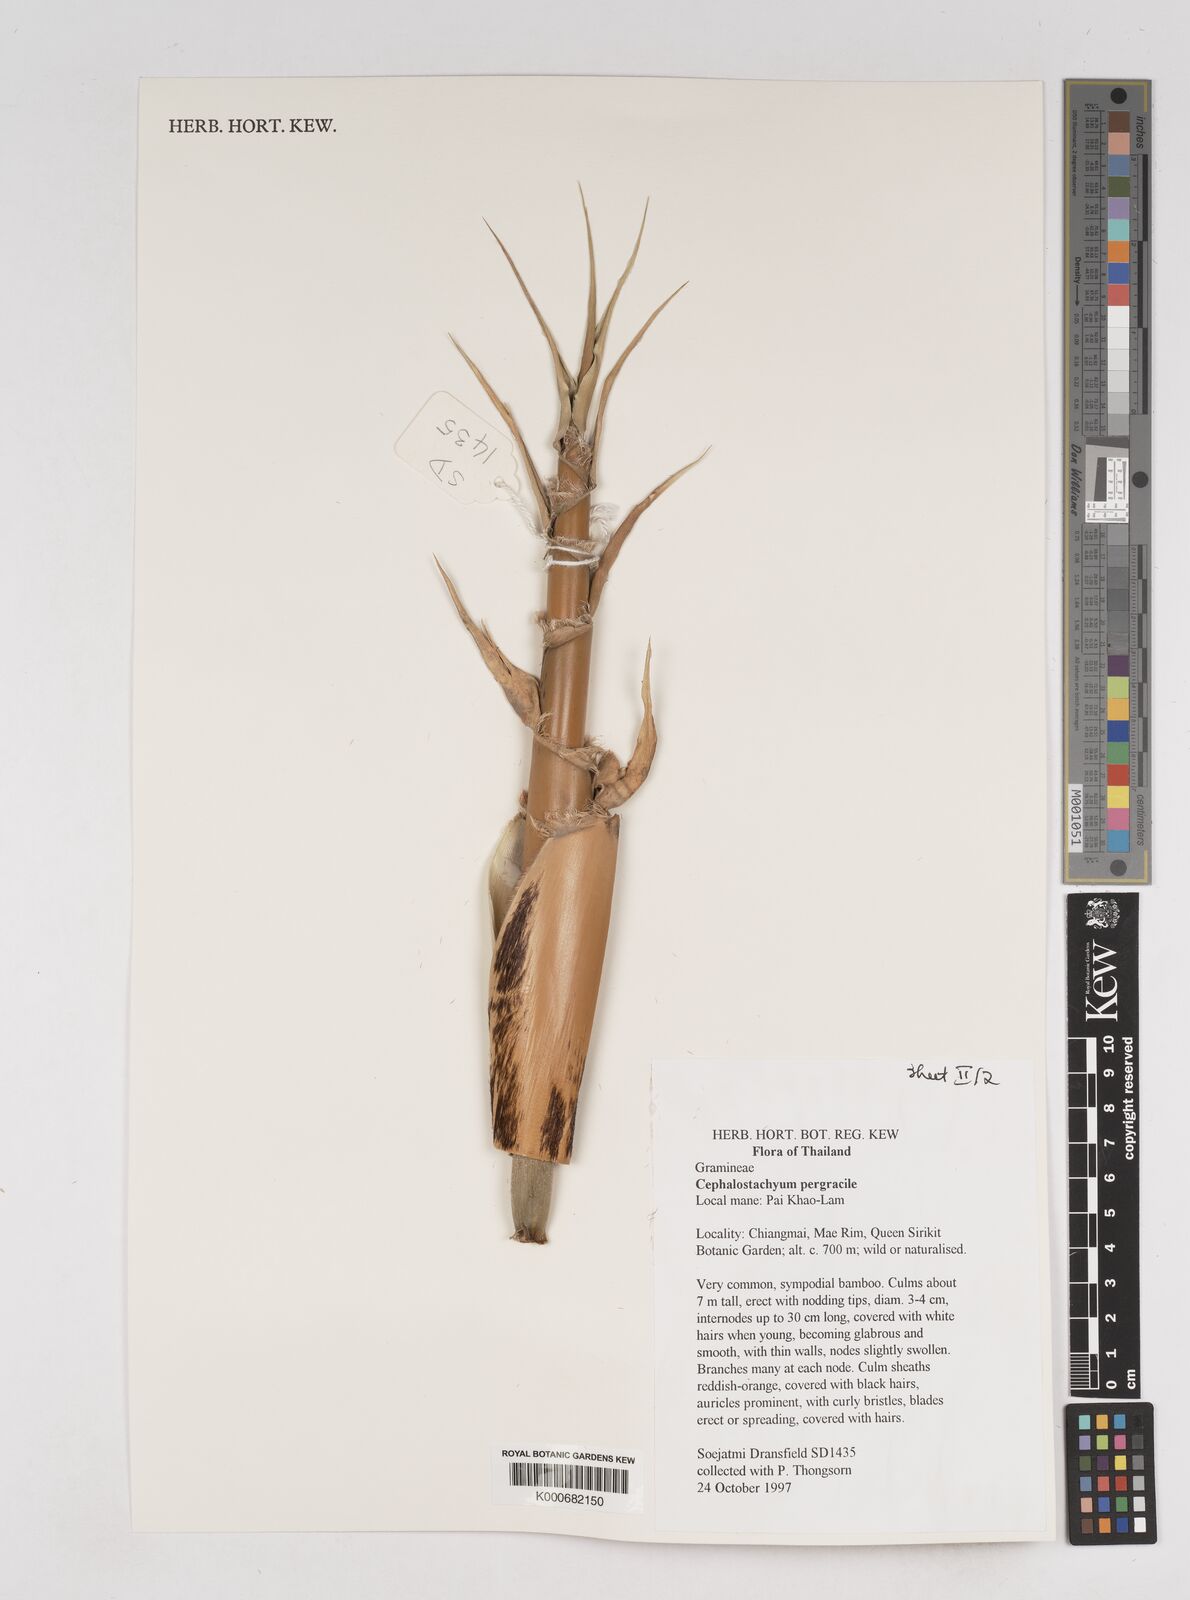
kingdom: Plantae
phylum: Tracheophyta
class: Liliopsida
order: Poales
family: Poaceae
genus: Schizostachyum
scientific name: Schizostachyum pergracile
